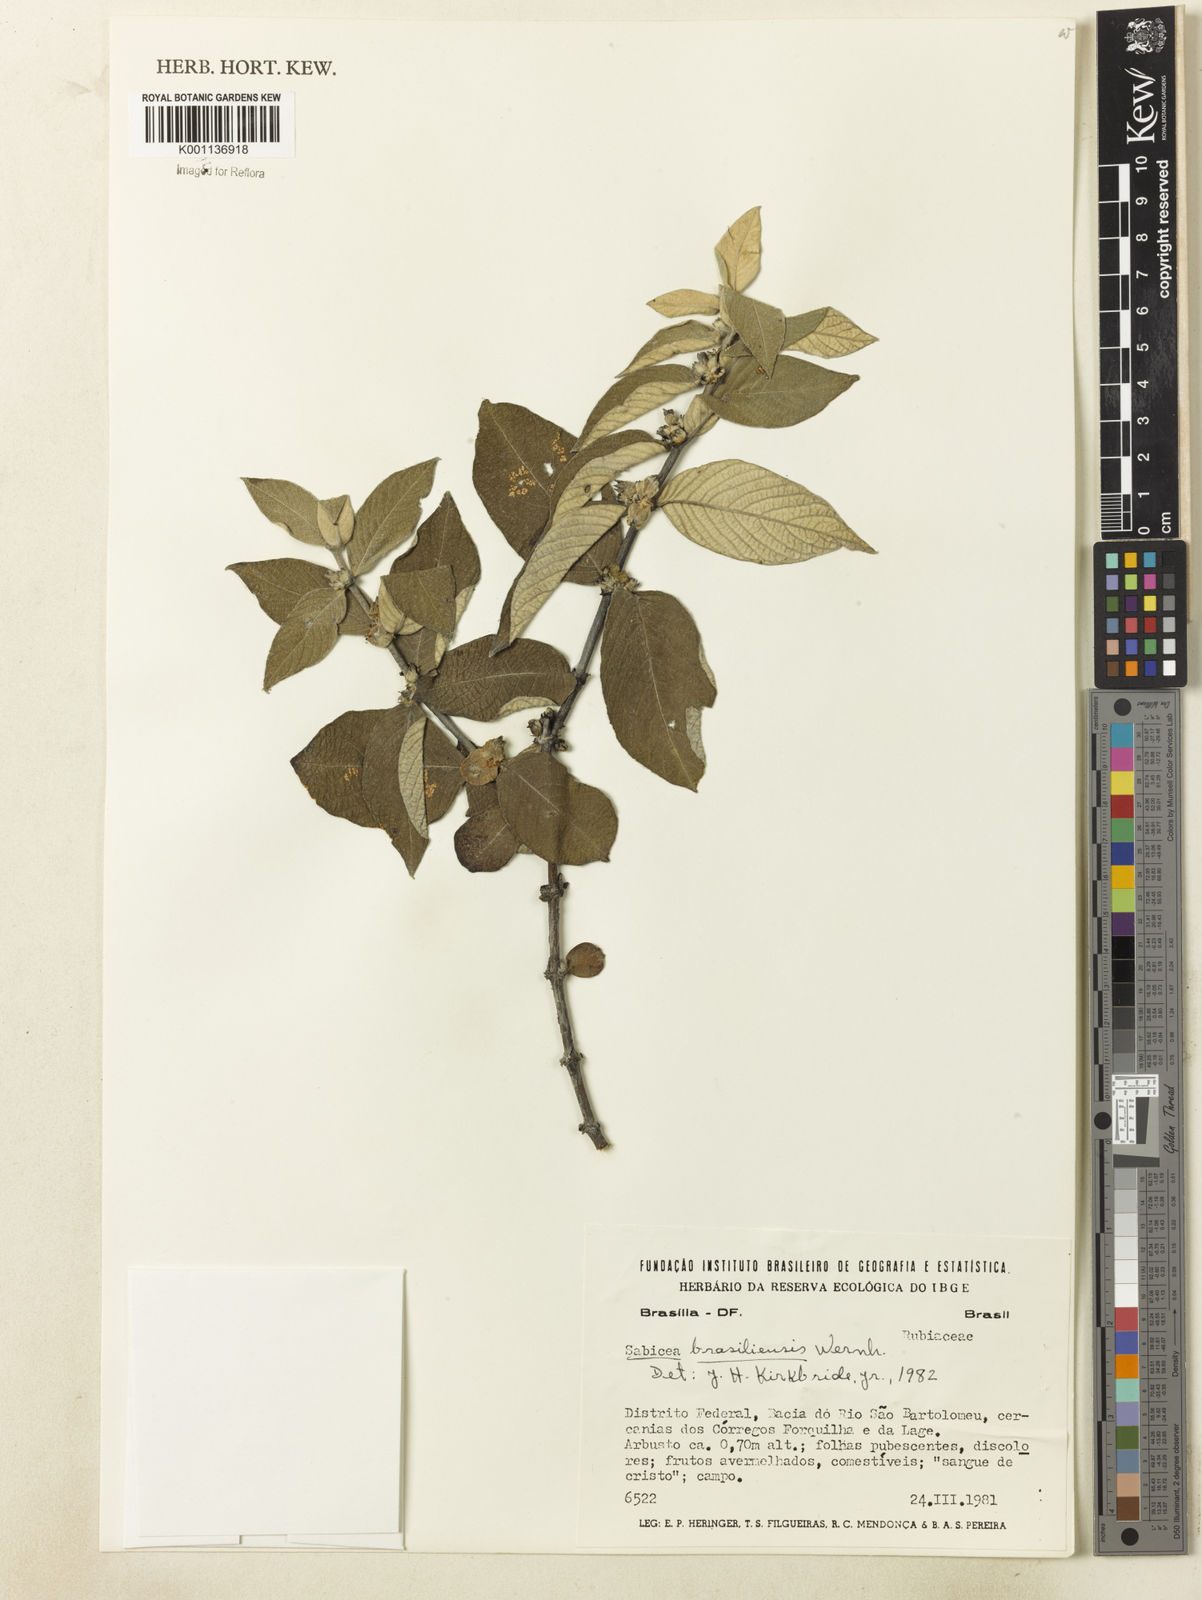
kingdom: Plantae
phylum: Tracheophyta
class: Magnoliopsida
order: Gentianales
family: Rubiaceae
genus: Sabicea
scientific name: Sabicea brasiliensis
